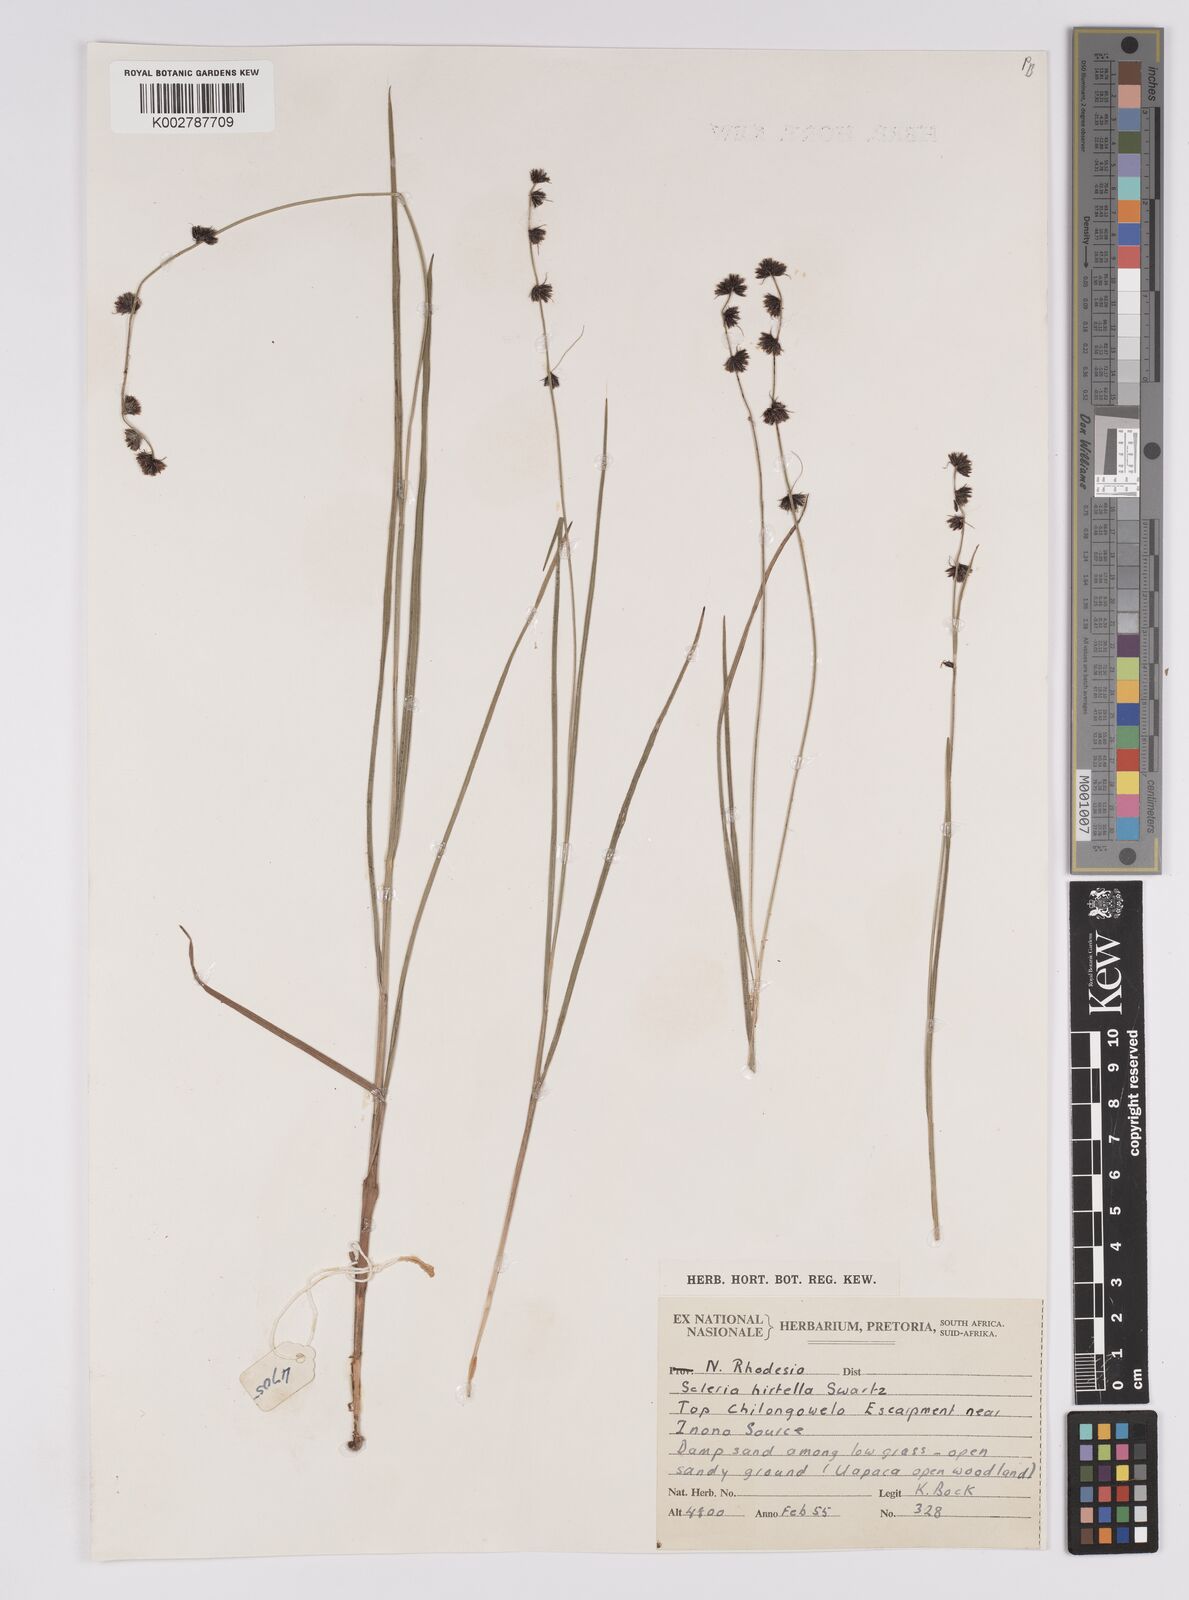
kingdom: Plantae
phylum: Tracheophyta
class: Liliopsida
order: Poales
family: Cyperaceae
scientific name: Cyperaceae
